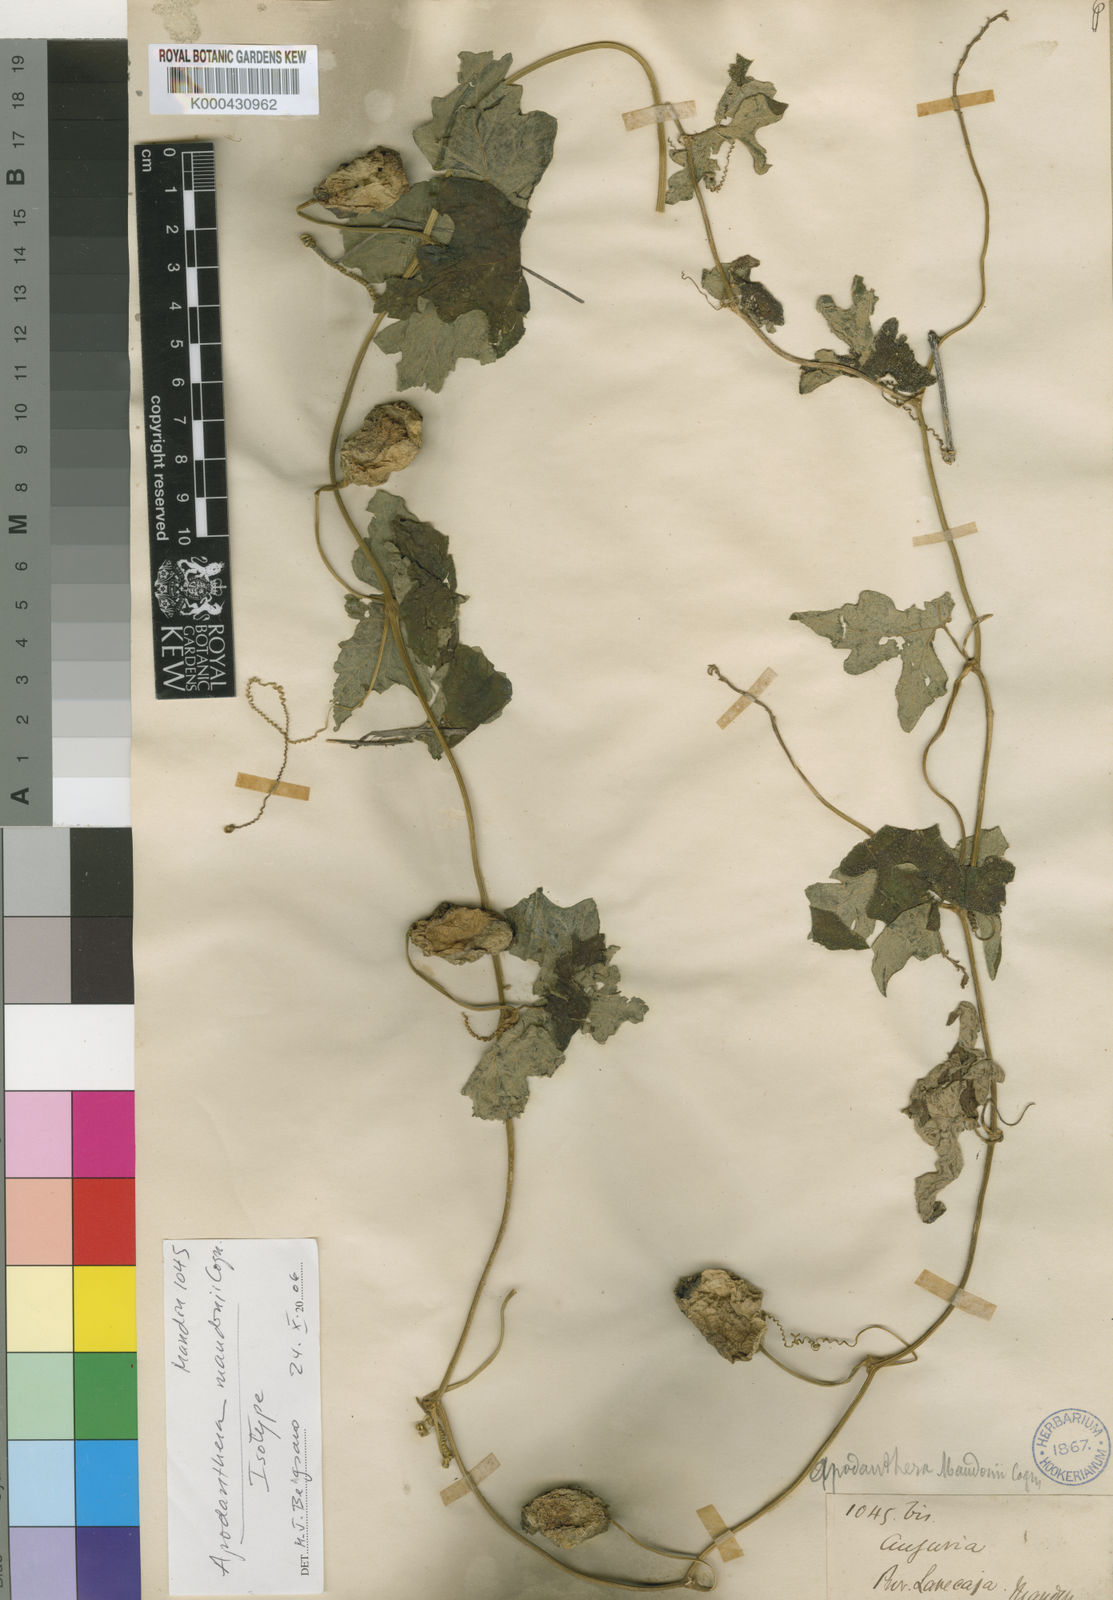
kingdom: Plantae
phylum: Tracheophyta
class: Magnoliopsida
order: Cucurbitales
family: Cucurbitaceae
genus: Apodanthera
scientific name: Apodanthera mandonii
